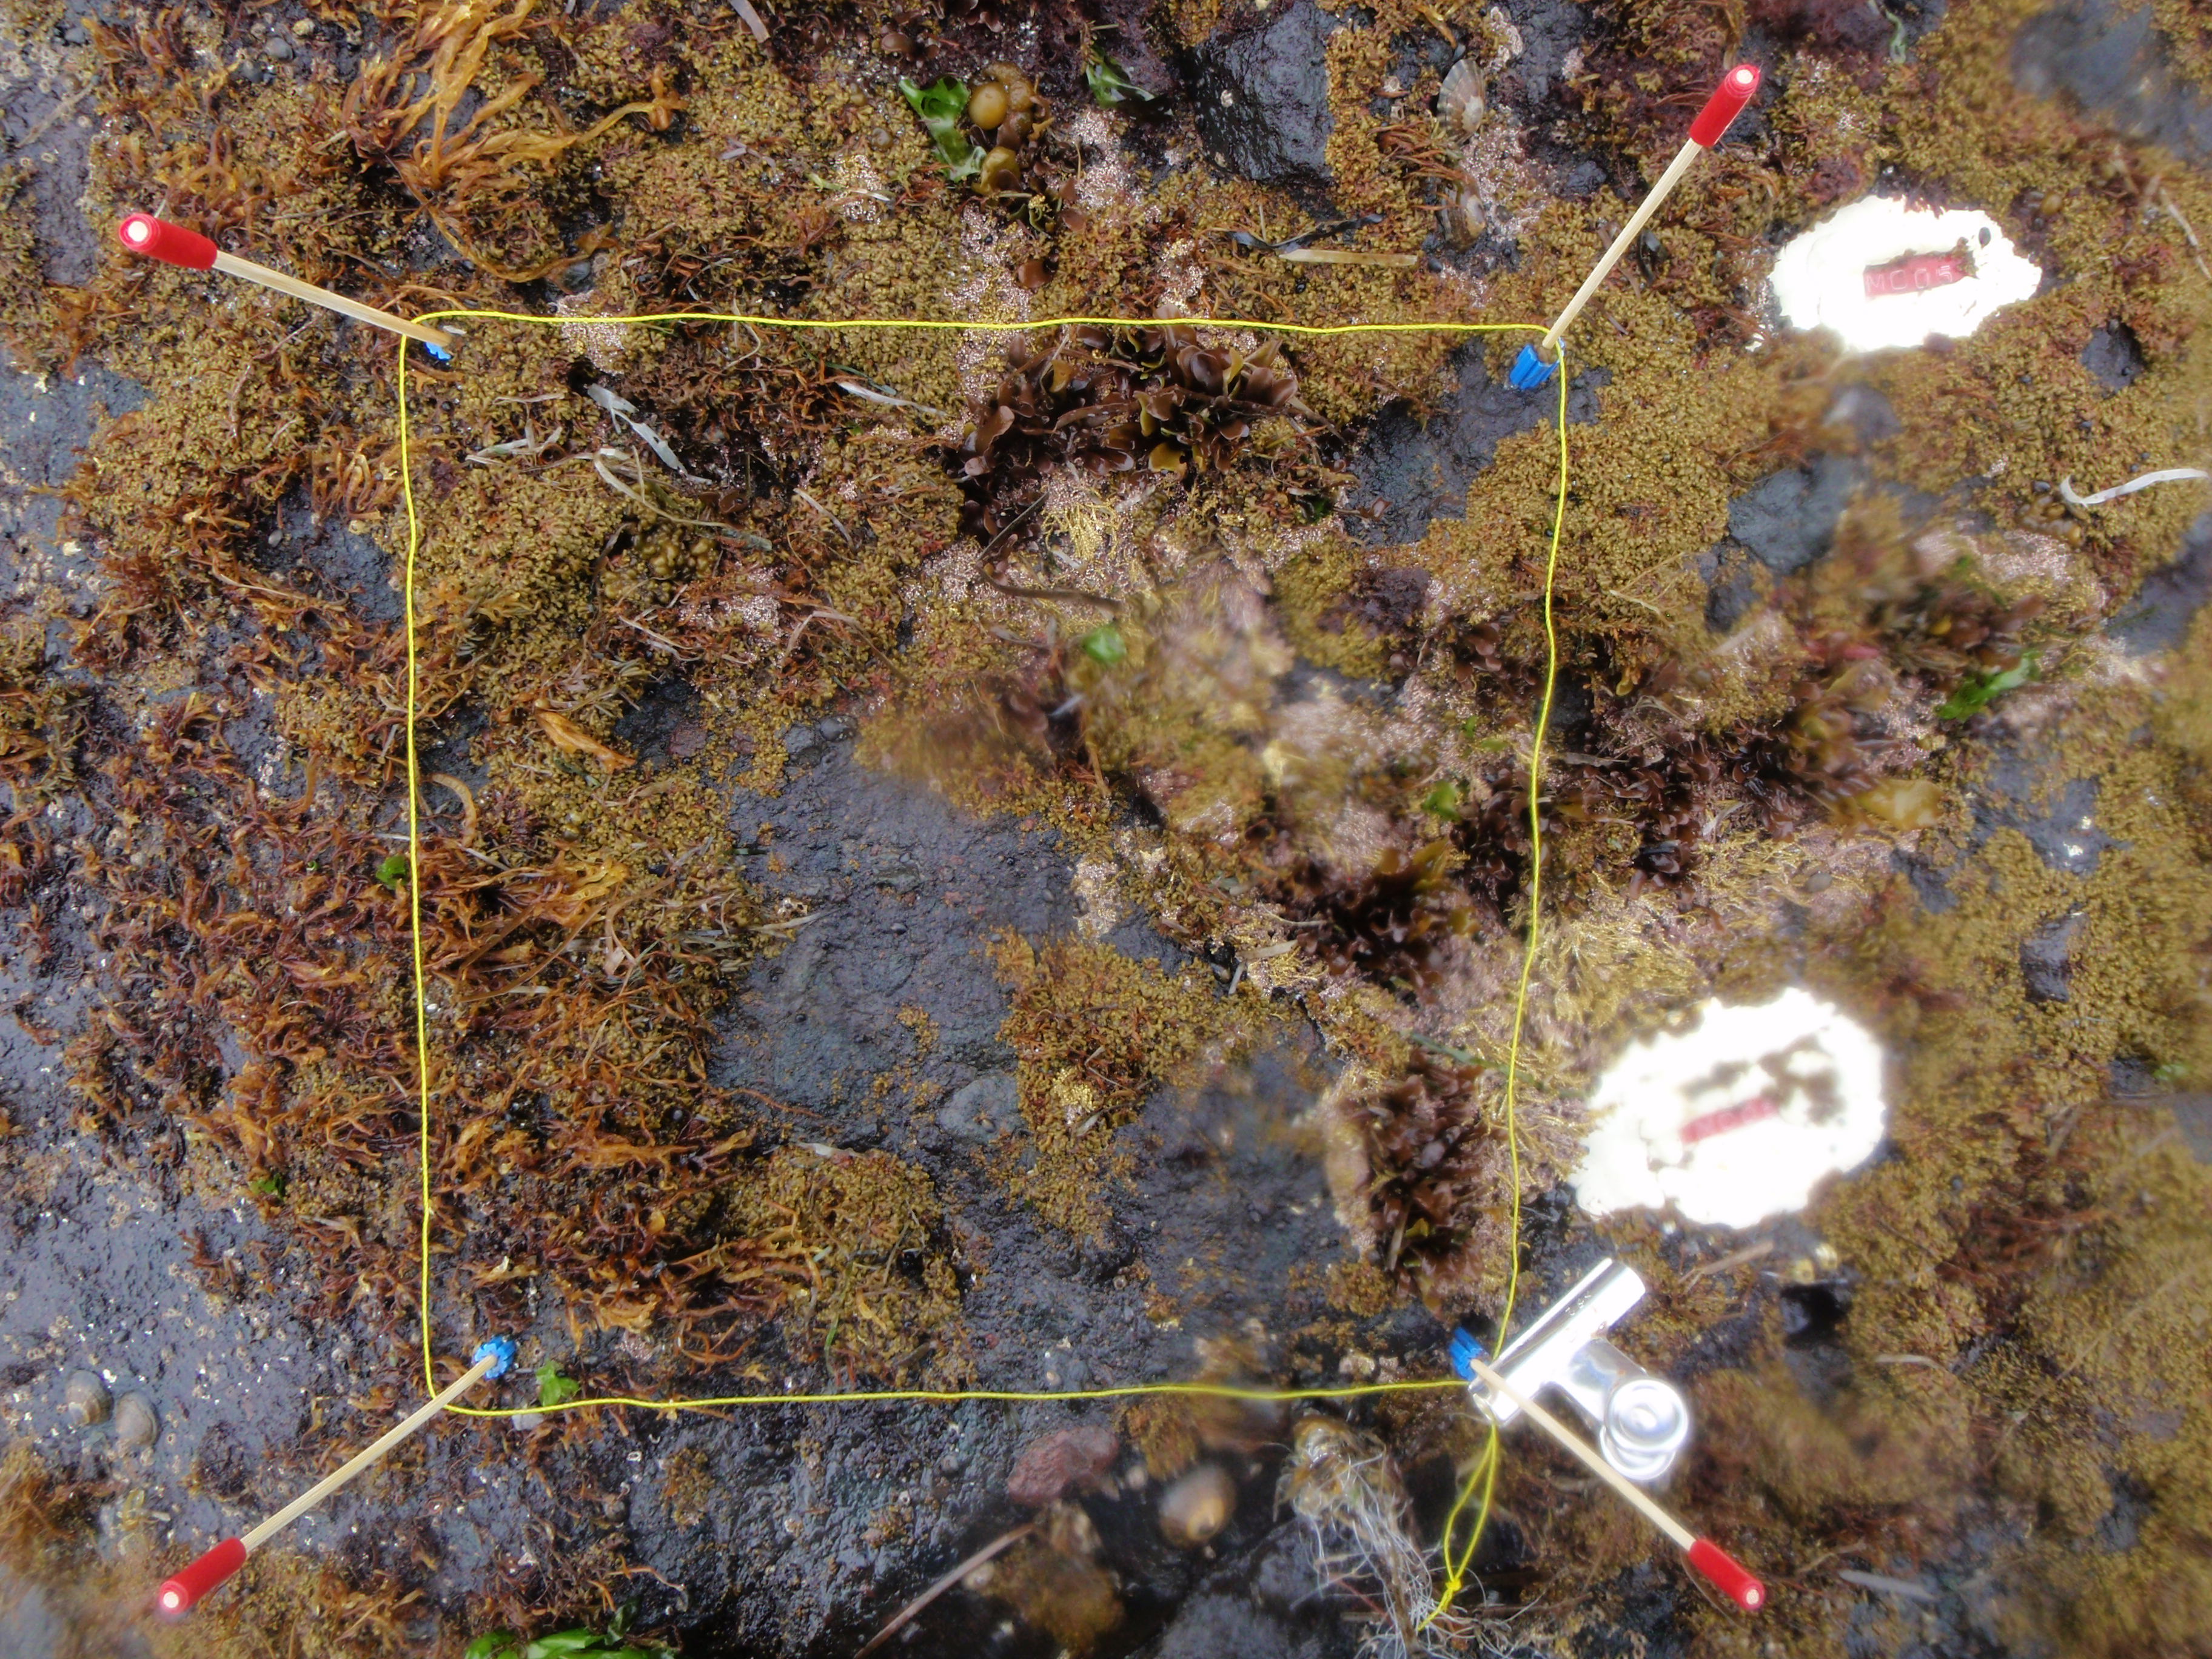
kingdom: Chromista
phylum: Ochrophyta
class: Phaeophyceae
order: Scytosiphonales
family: Scytosiphonaceae
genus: Analipus
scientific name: Analipus japonicus
